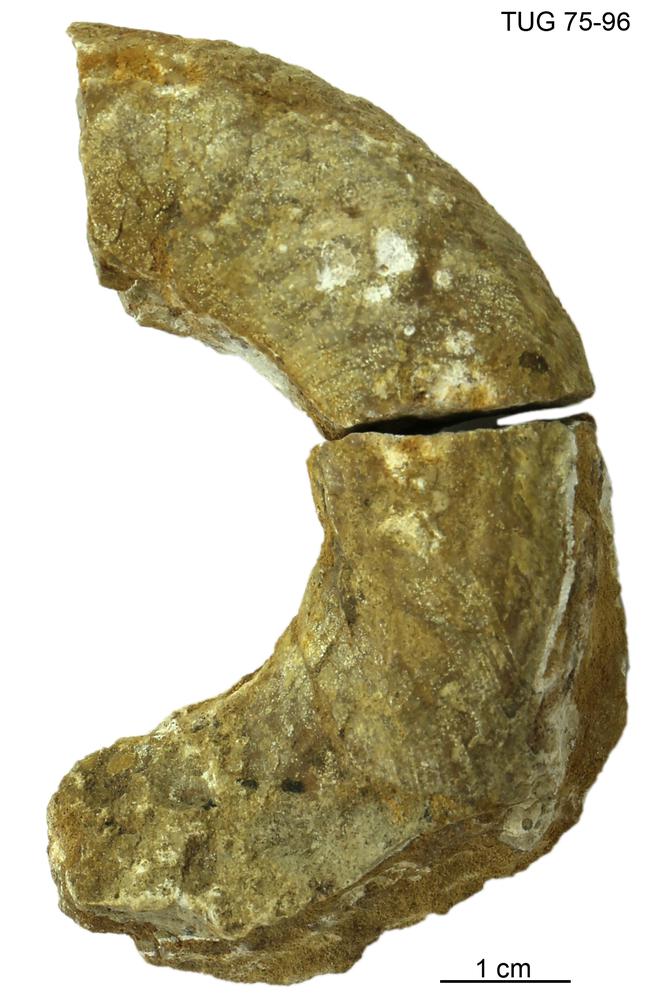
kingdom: Animalia
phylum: Mollusca
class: Cephalopoda
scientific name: Cephalopoda
